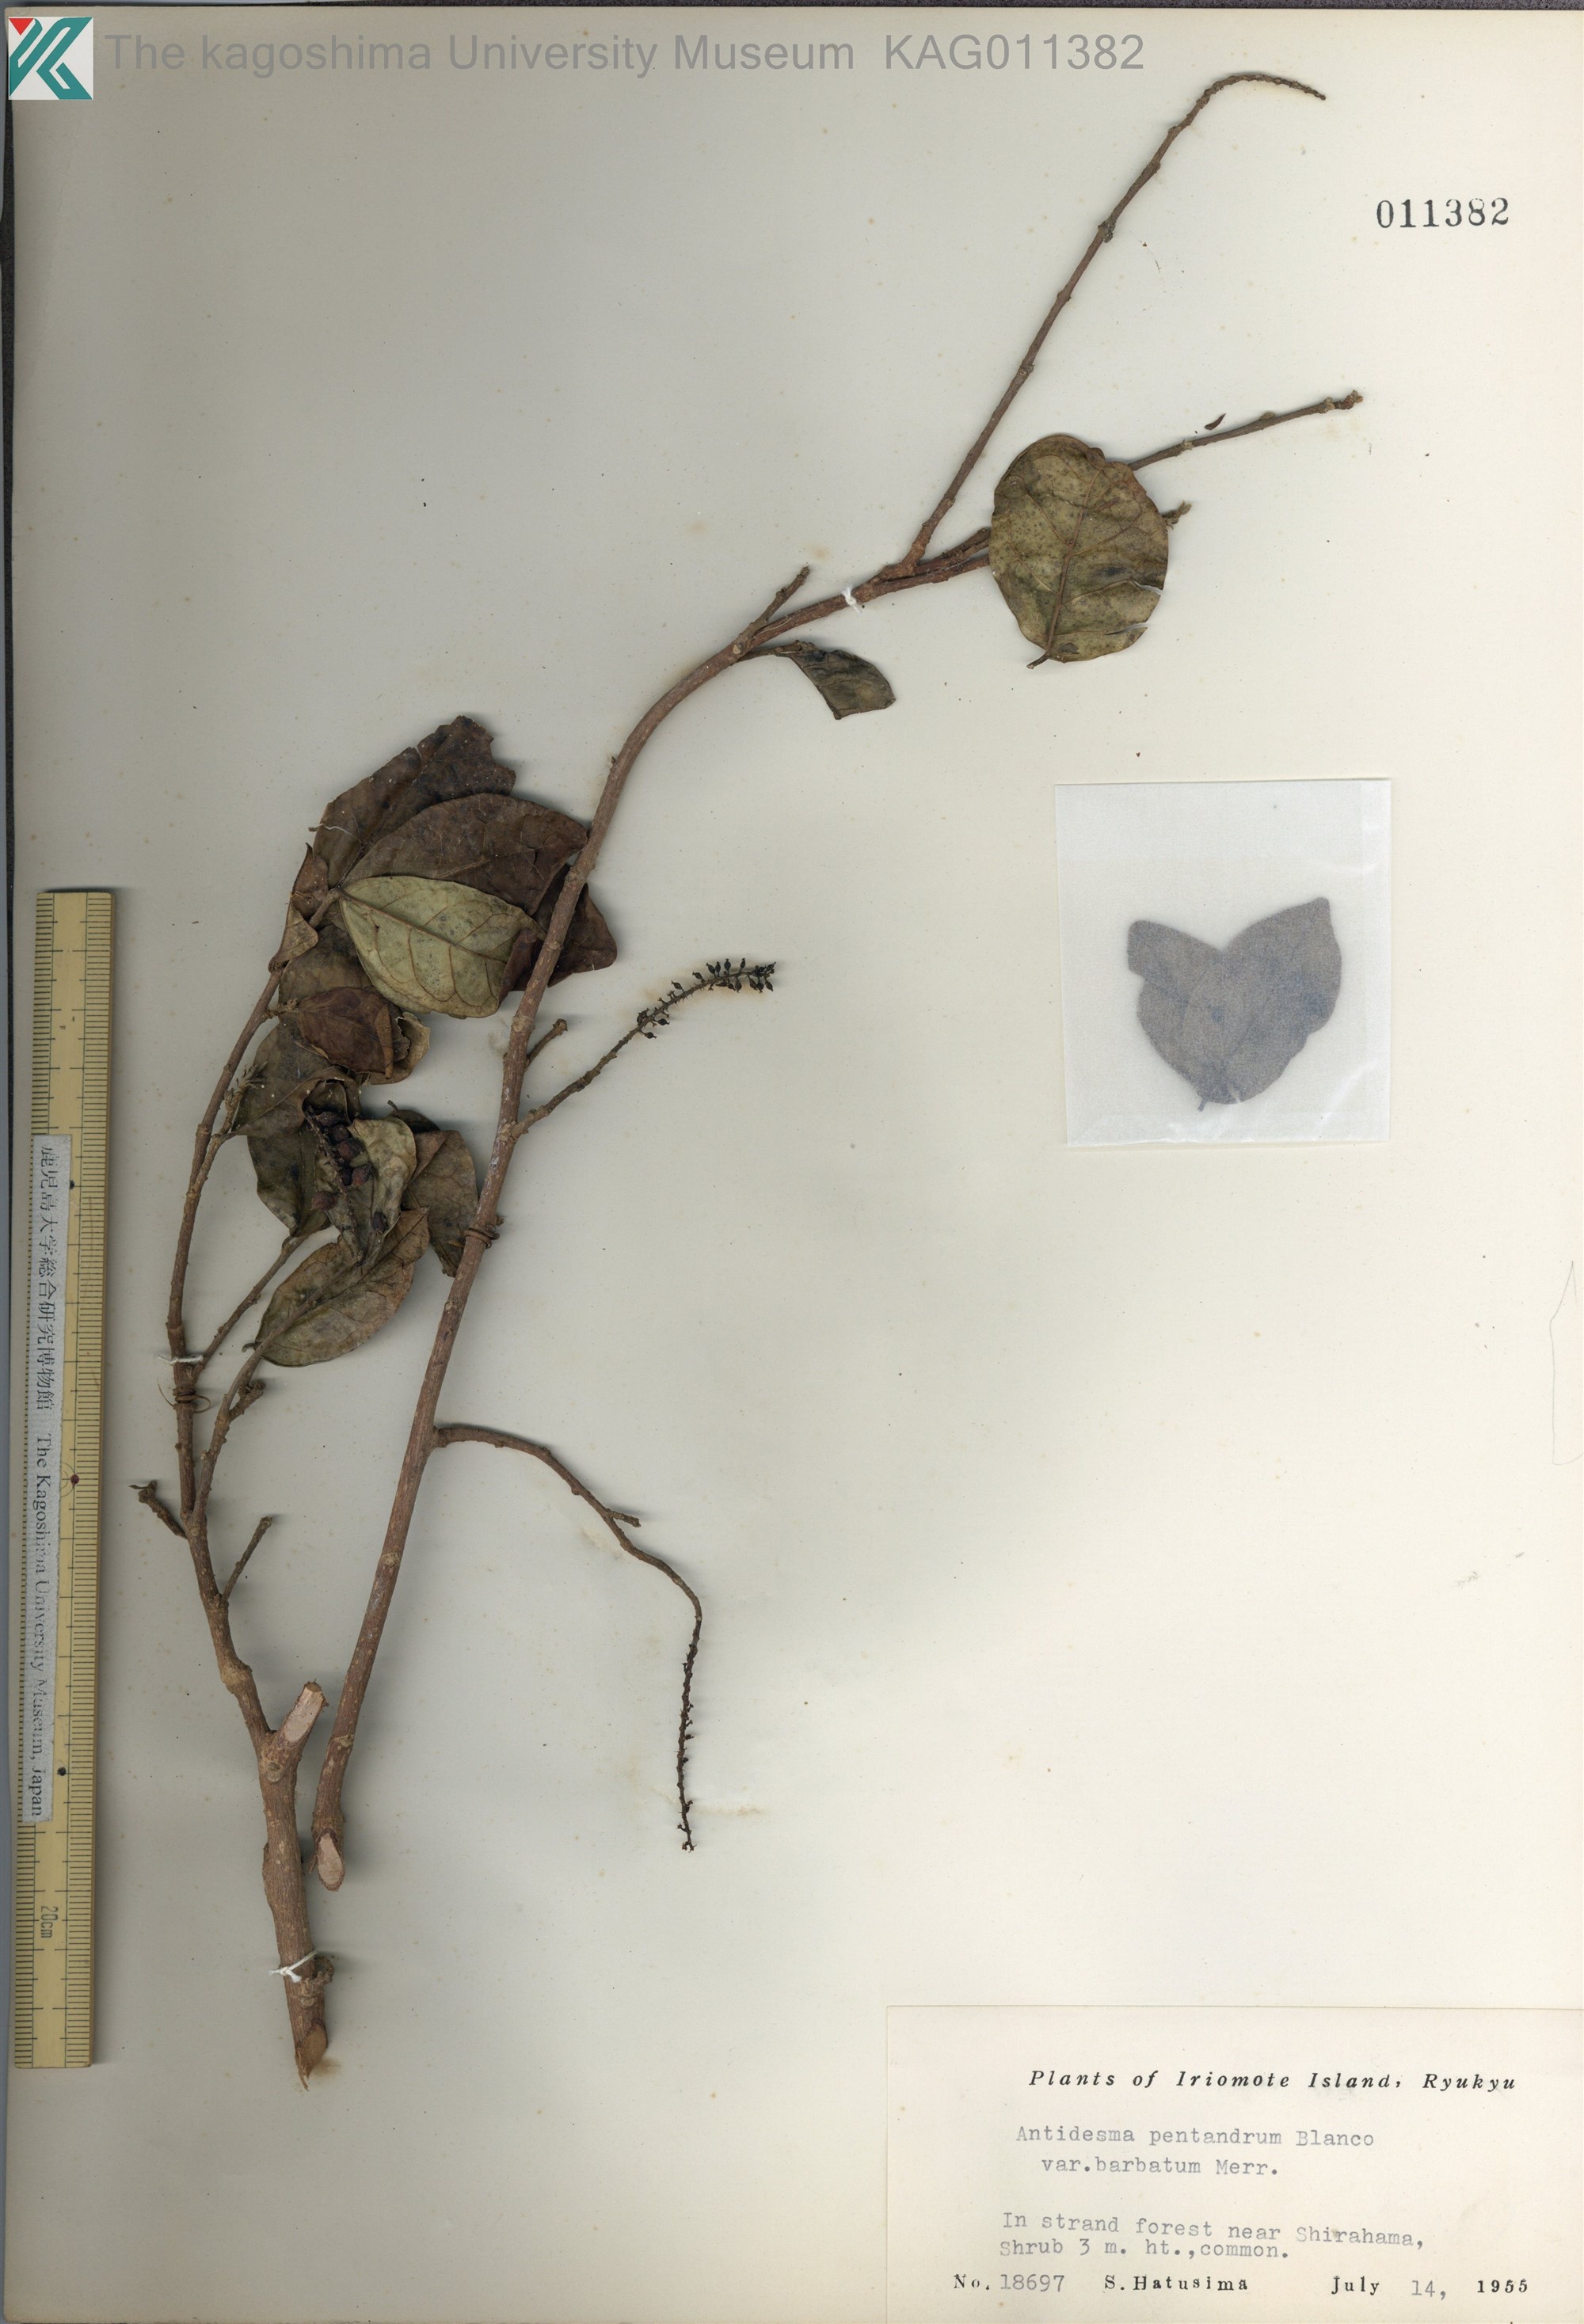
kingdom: Plantae
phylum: Tracheophyta
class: Magnoliopsida
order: Malpighiales
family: Phyllanthaceae
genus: Antidesma
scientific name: Antidesma montanum
